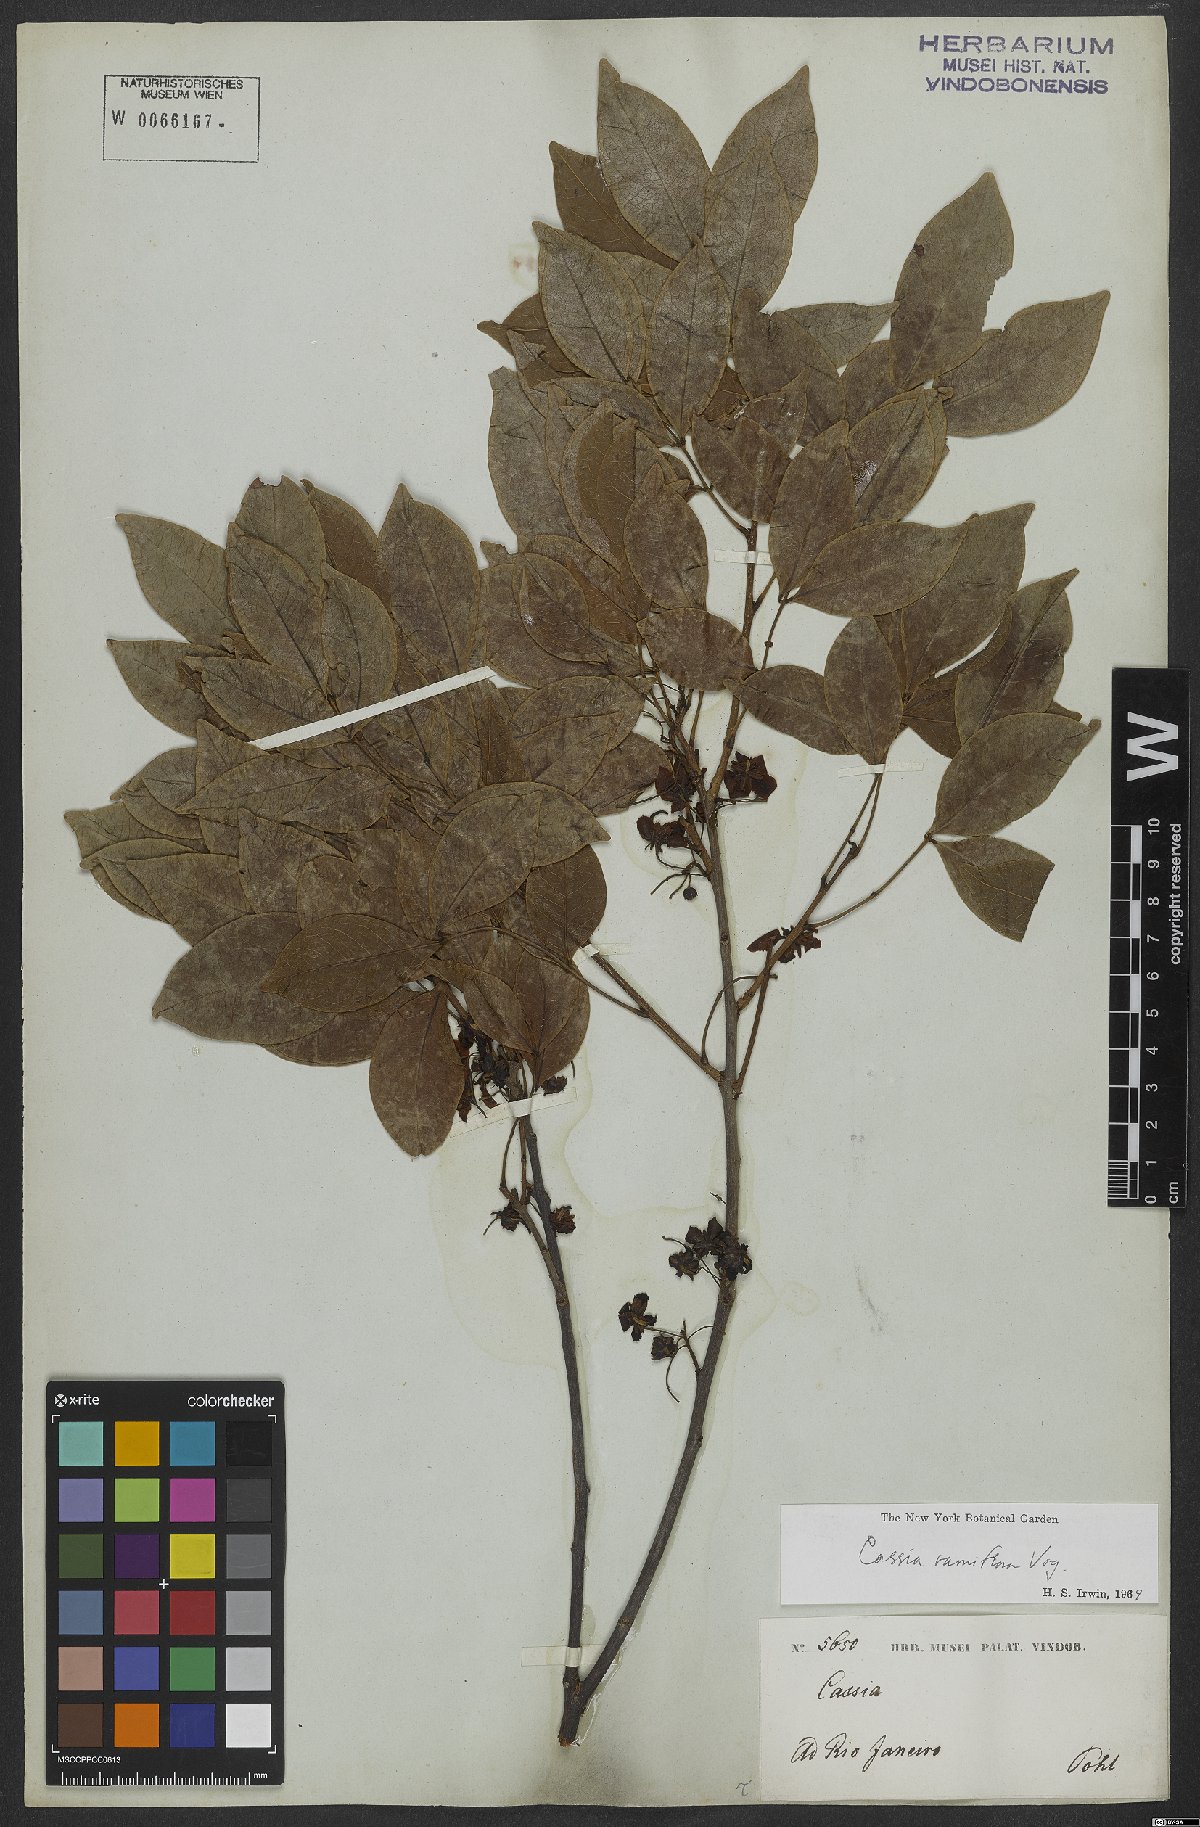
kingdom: Plantae
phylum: Tracheophyta
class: Magnoliopsida
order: Fabales
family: Fabaceae
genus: Chamaecrista
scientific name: Chamaecrista ensiformis
